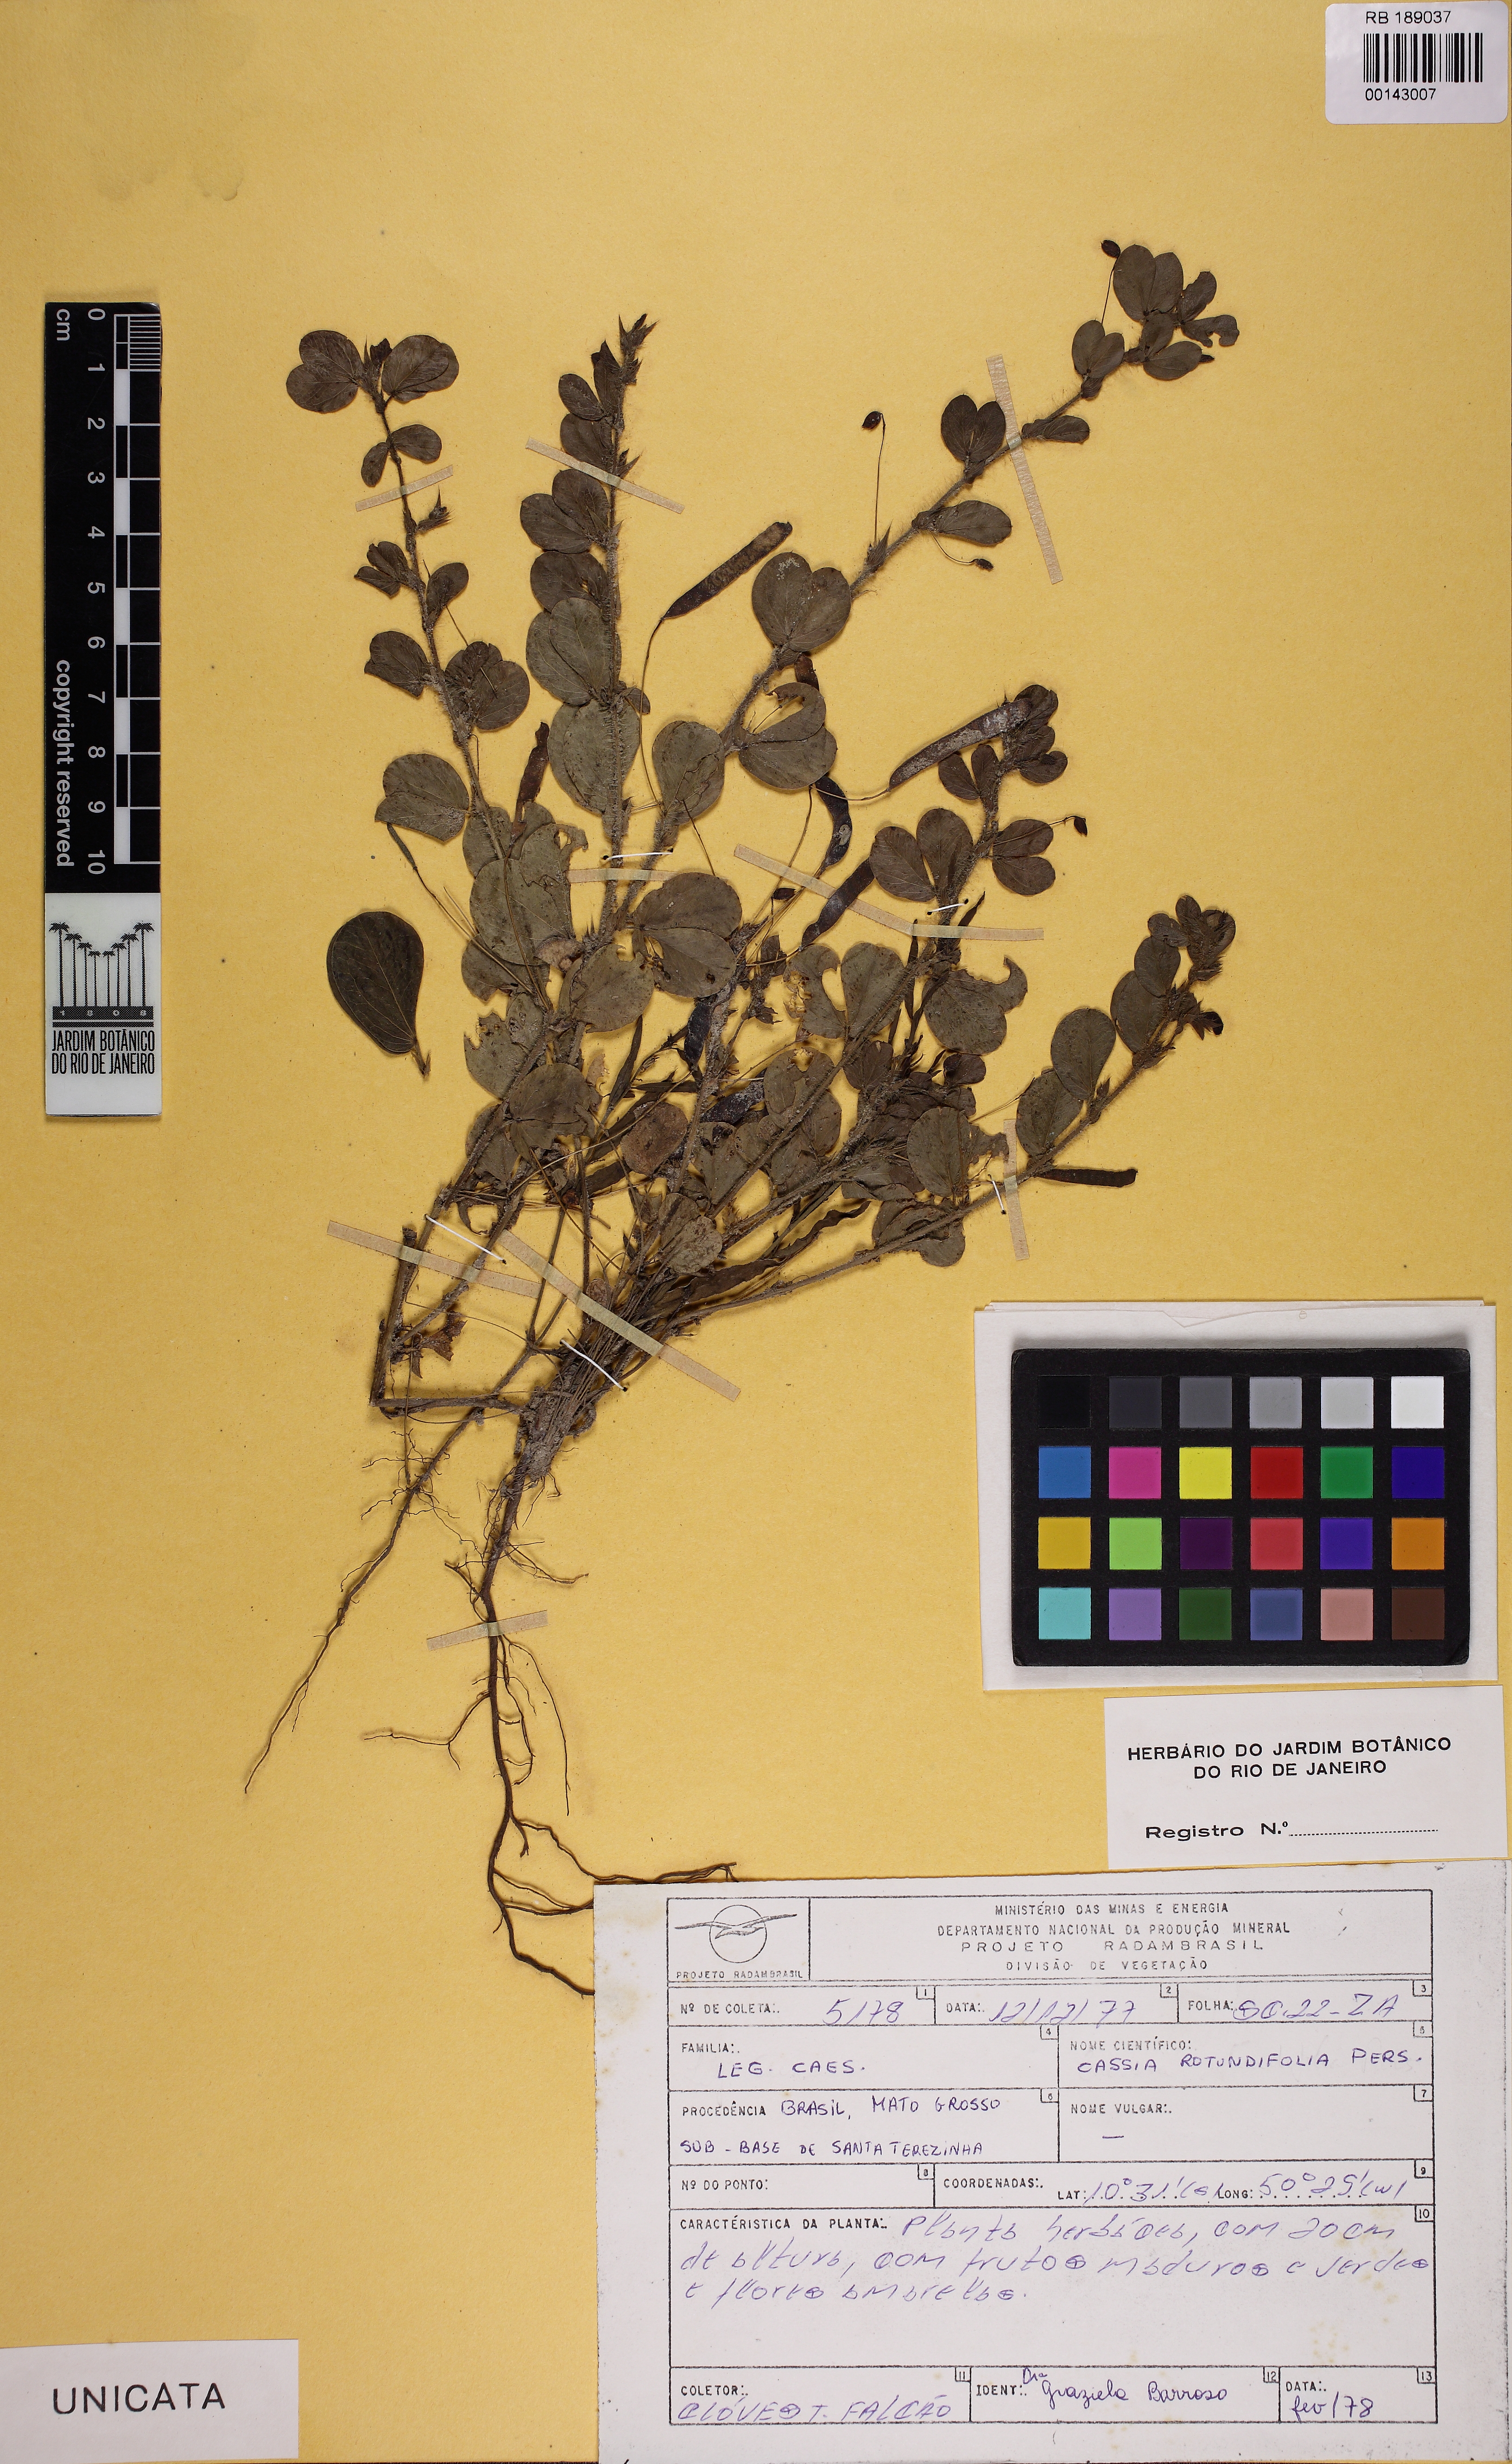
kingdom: Plantae
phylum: Tracheophyta
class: Magnoliopsida
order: Fabales
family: Fabaceae
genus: Chamaecrista
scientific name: Chamaecrista rotundifolia
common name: Round-leaf cassia
